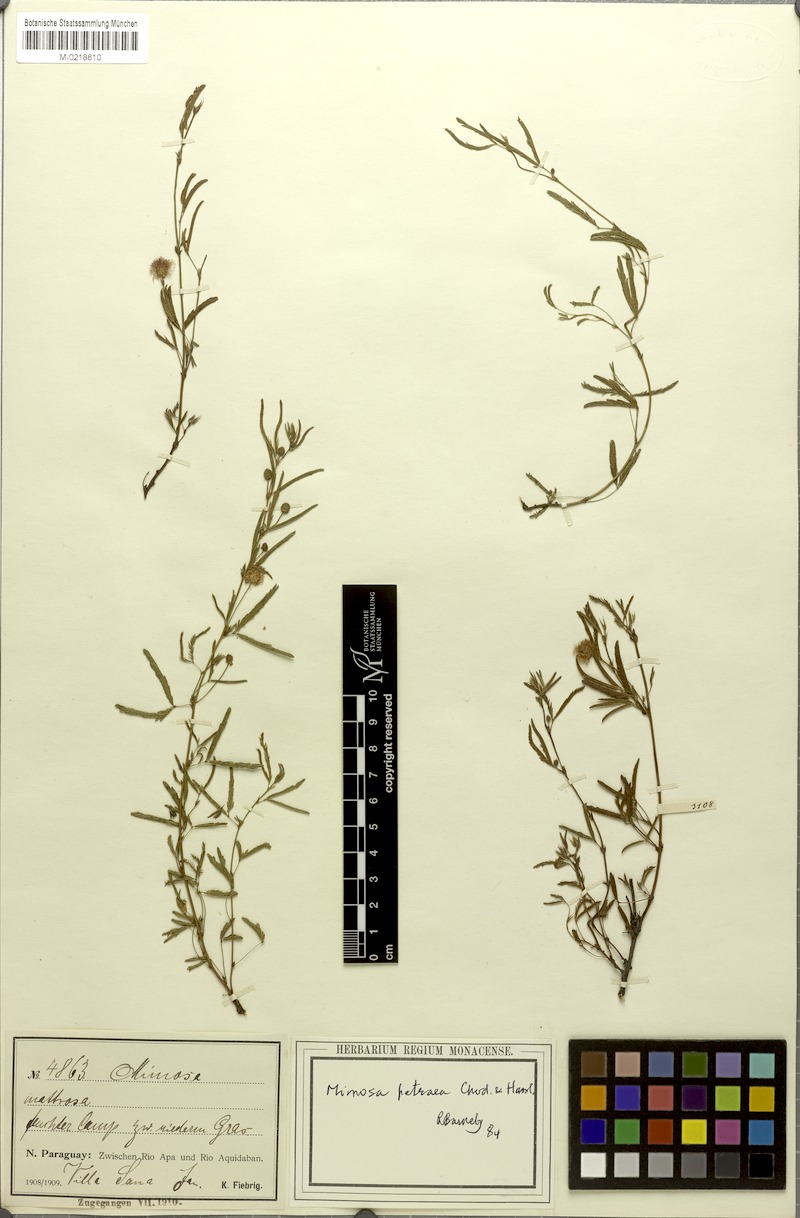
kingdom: Plantae
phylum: Tracheophyta
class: Magnoliopsida
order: Fabales
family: Fabaceae
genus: Mimosa
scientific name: Mimosa leimonias
